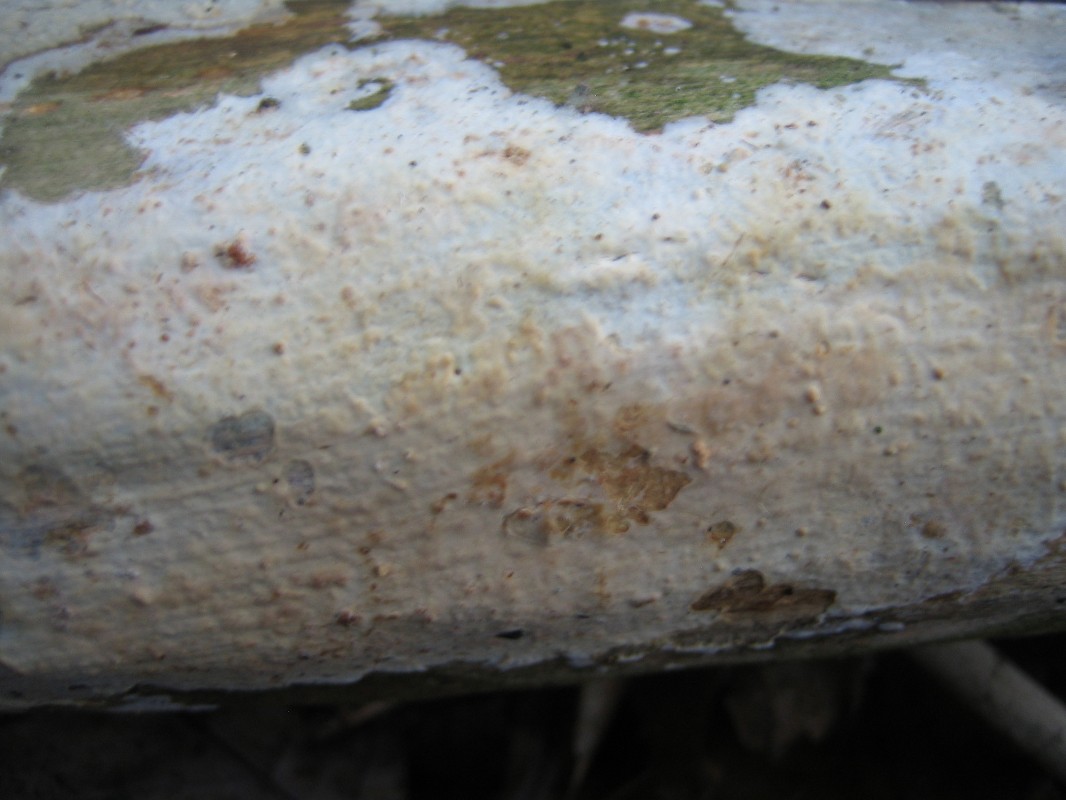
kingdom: Fungi
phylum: Basidiomycota
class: Agaricomycetes
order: Corticiales
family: Corticiaceae
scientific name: Corticiaceae
